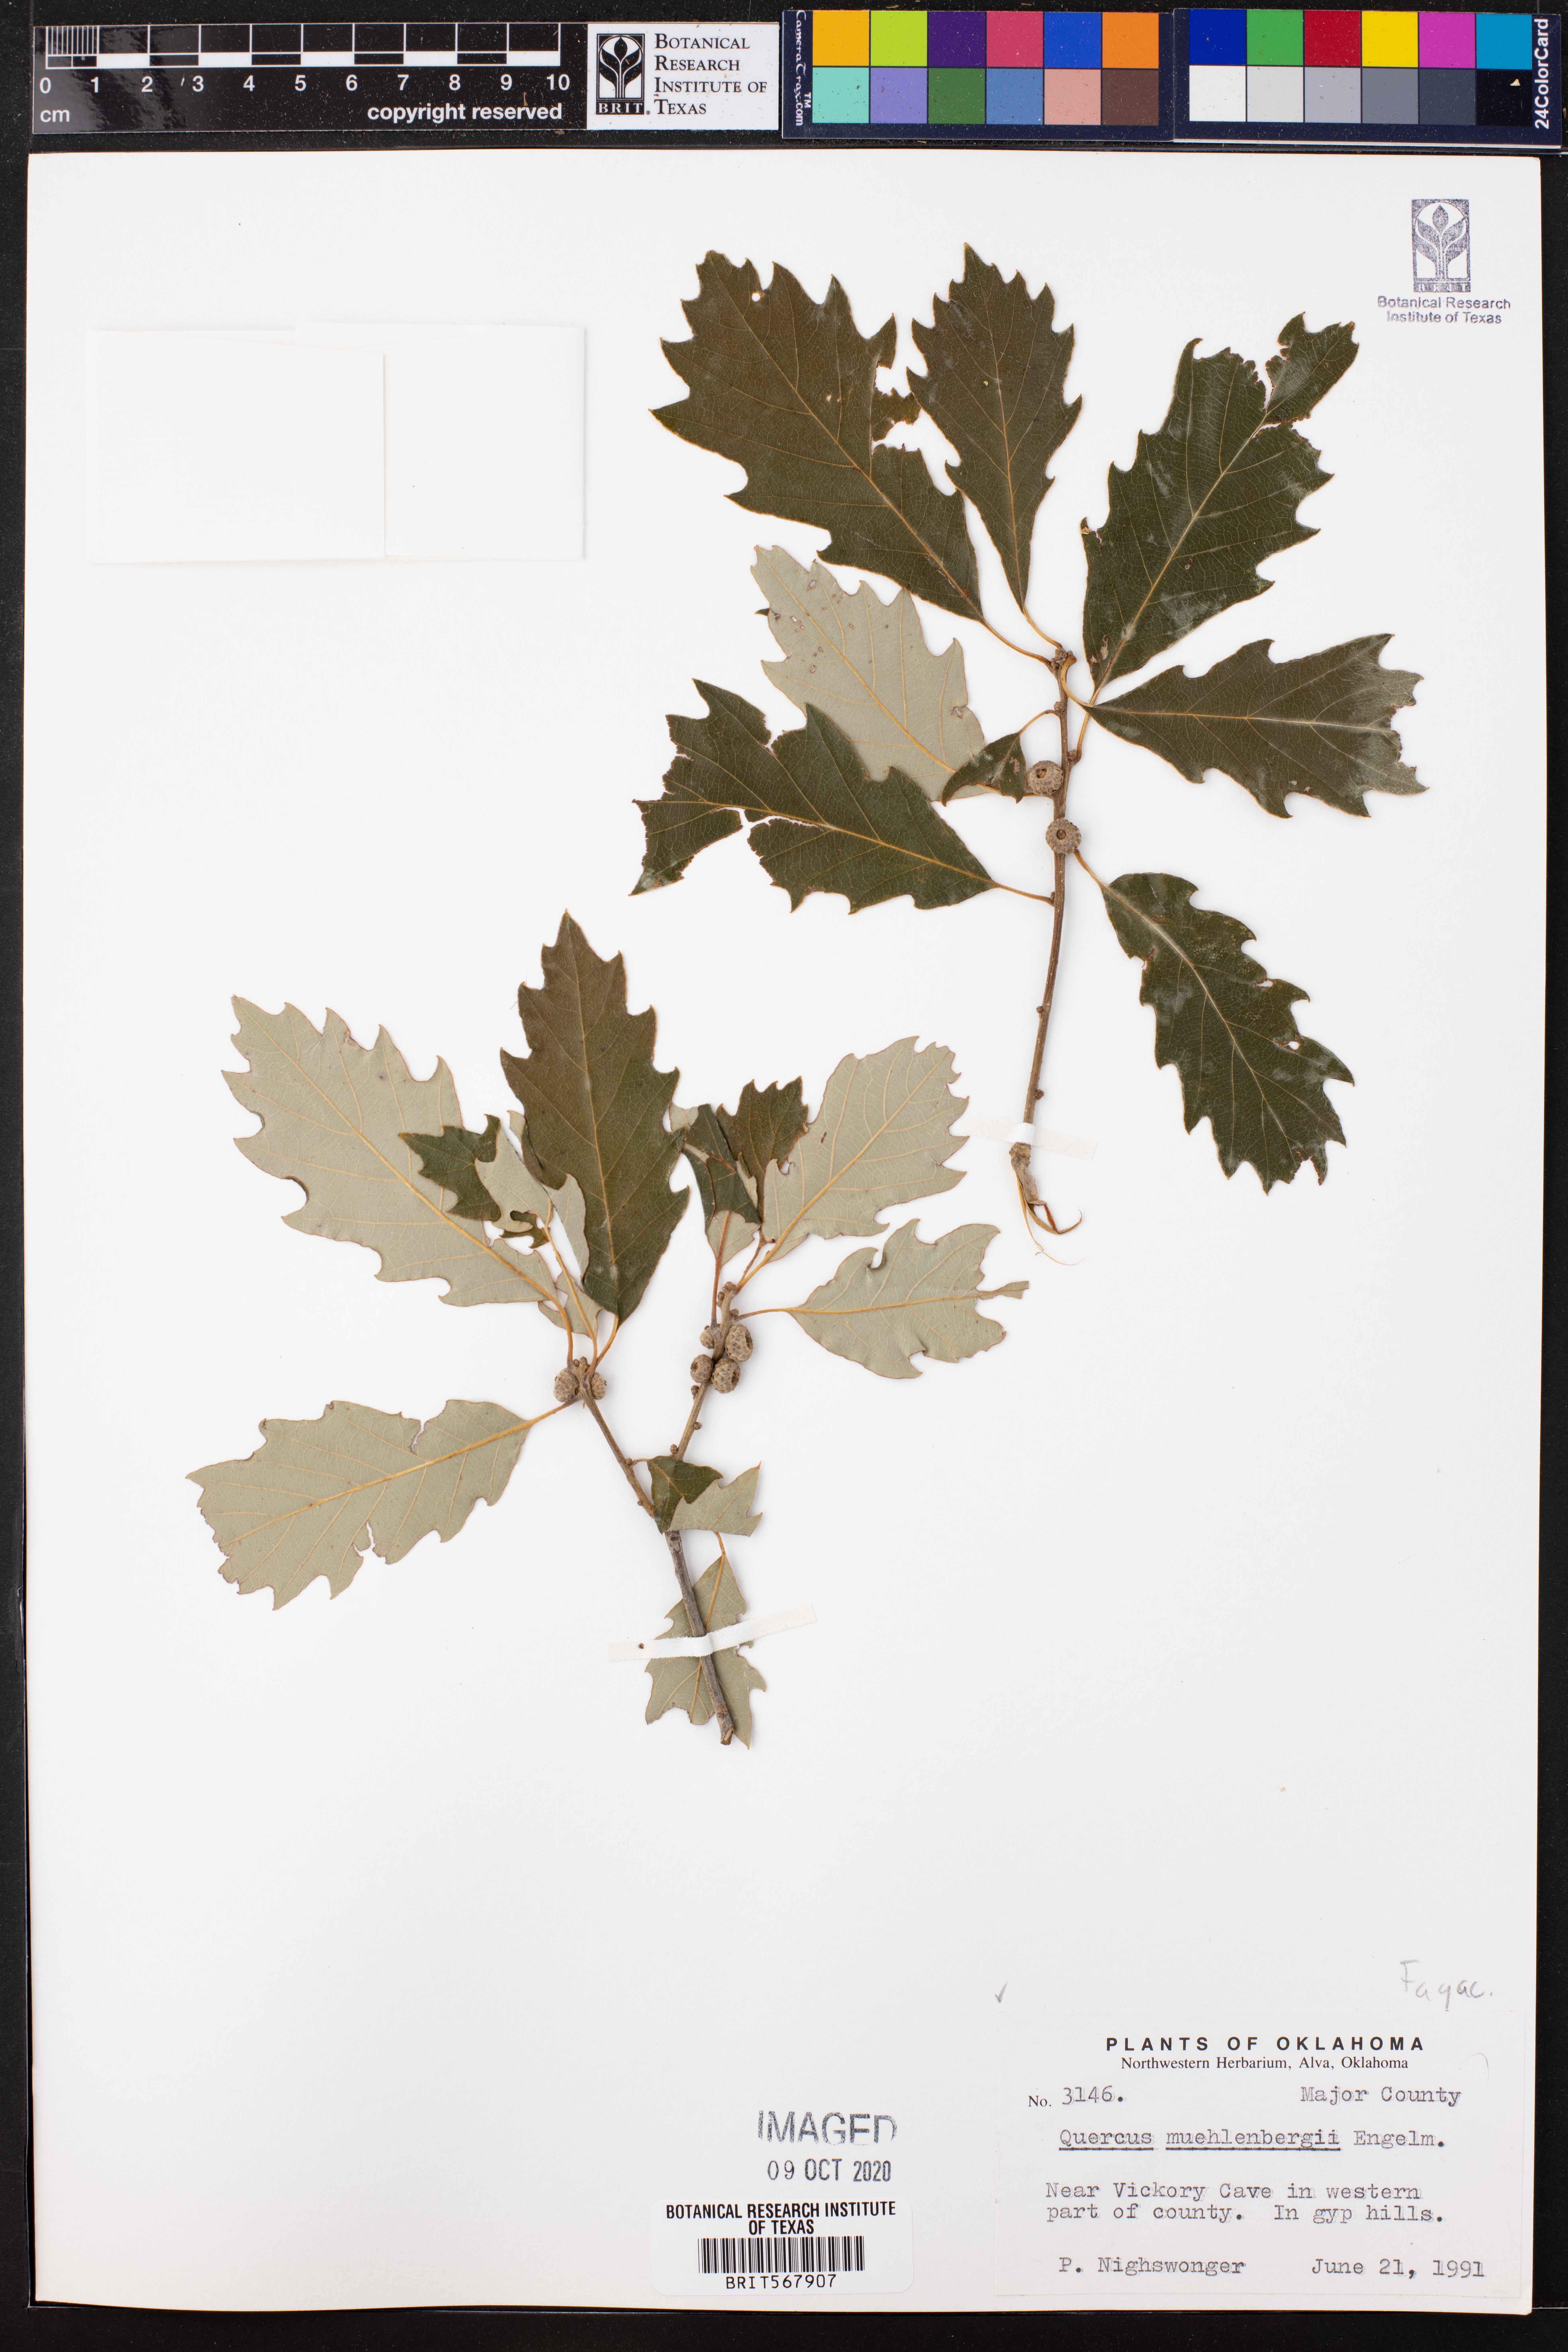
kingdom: Plantae
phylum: Tracheophyta
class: Magnoliopsida
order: Fagales
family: Fagaceae
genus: Quercus
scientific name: Quercus muehlenbergii
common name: Chinkapin oak
